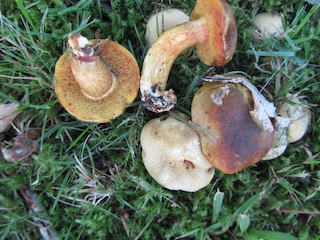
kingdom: Fungi
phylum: Basidiomycota
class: Agaricomycetes
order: Boletales
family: Boletaceae
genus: Pseudoboletus
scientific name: Pseudoboletus parasiticus
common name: snyltende rørhat
